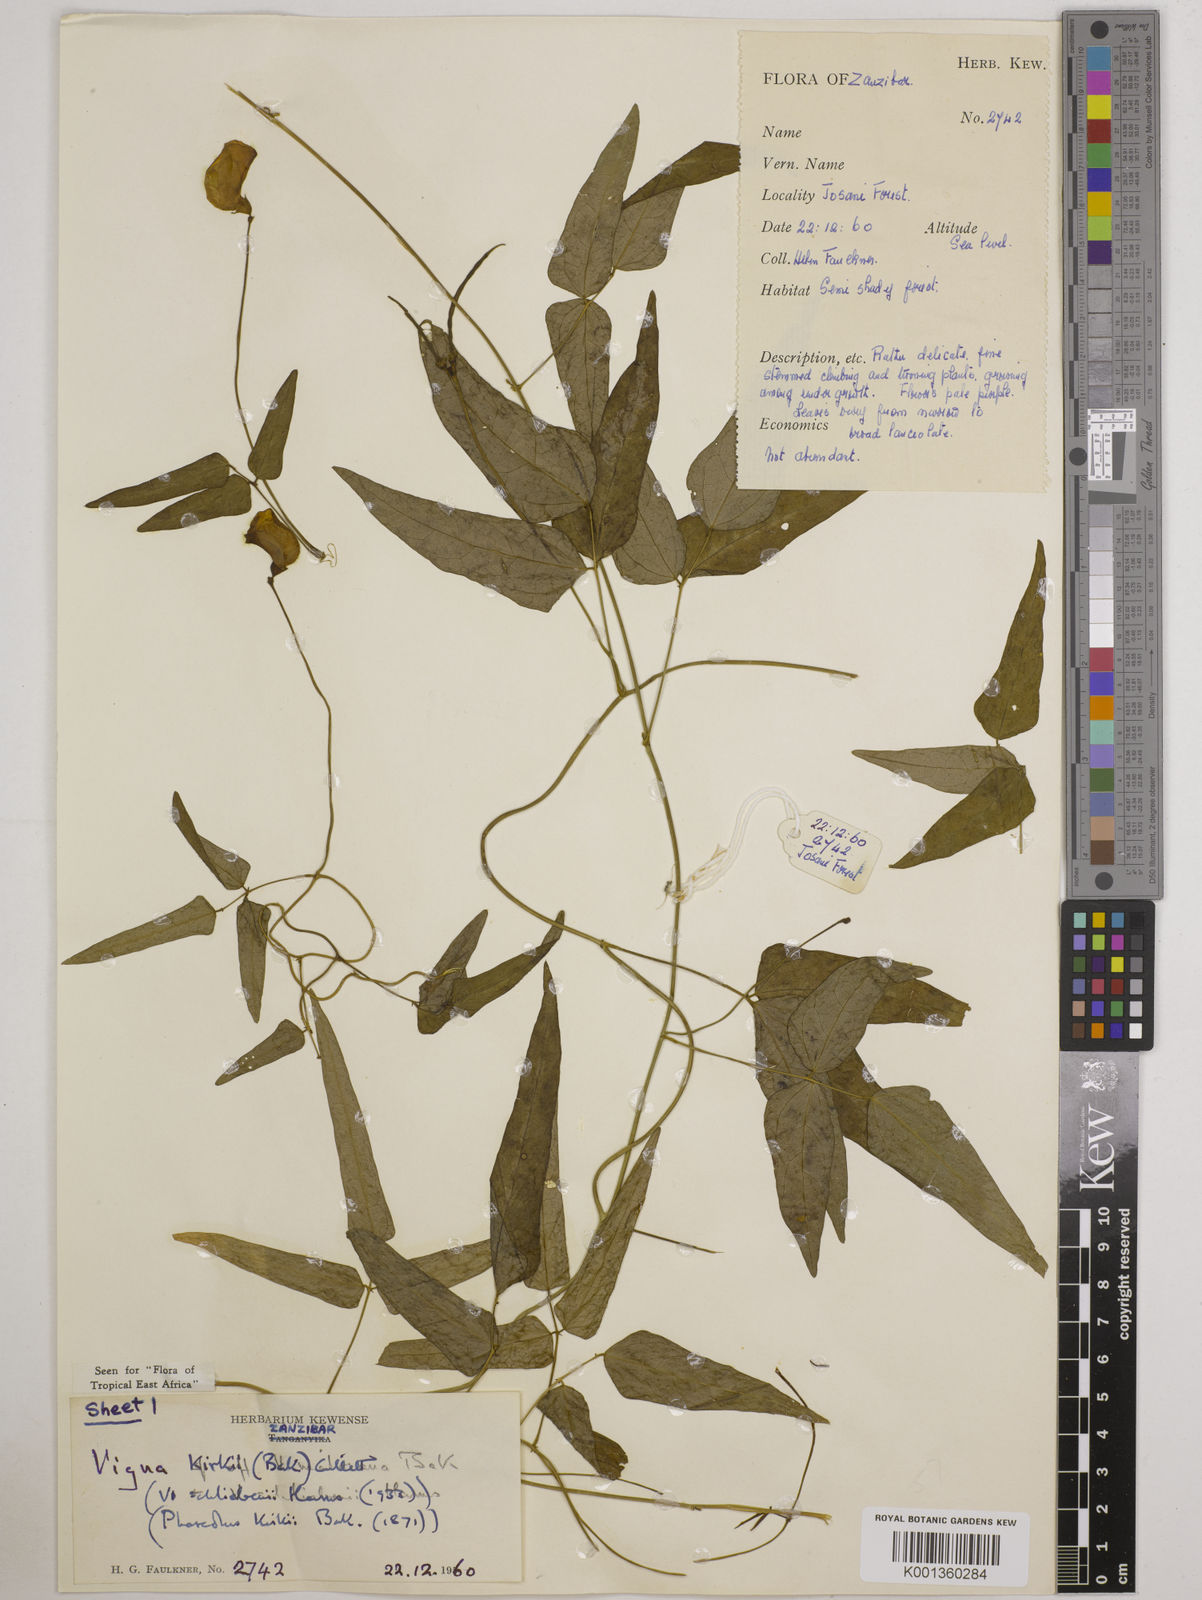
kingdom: Plantae
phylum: Tracheophyta
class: Magnoliopsida
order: Fabales
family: Fabaceae
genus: Vigna
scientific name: Vigna kirkii
